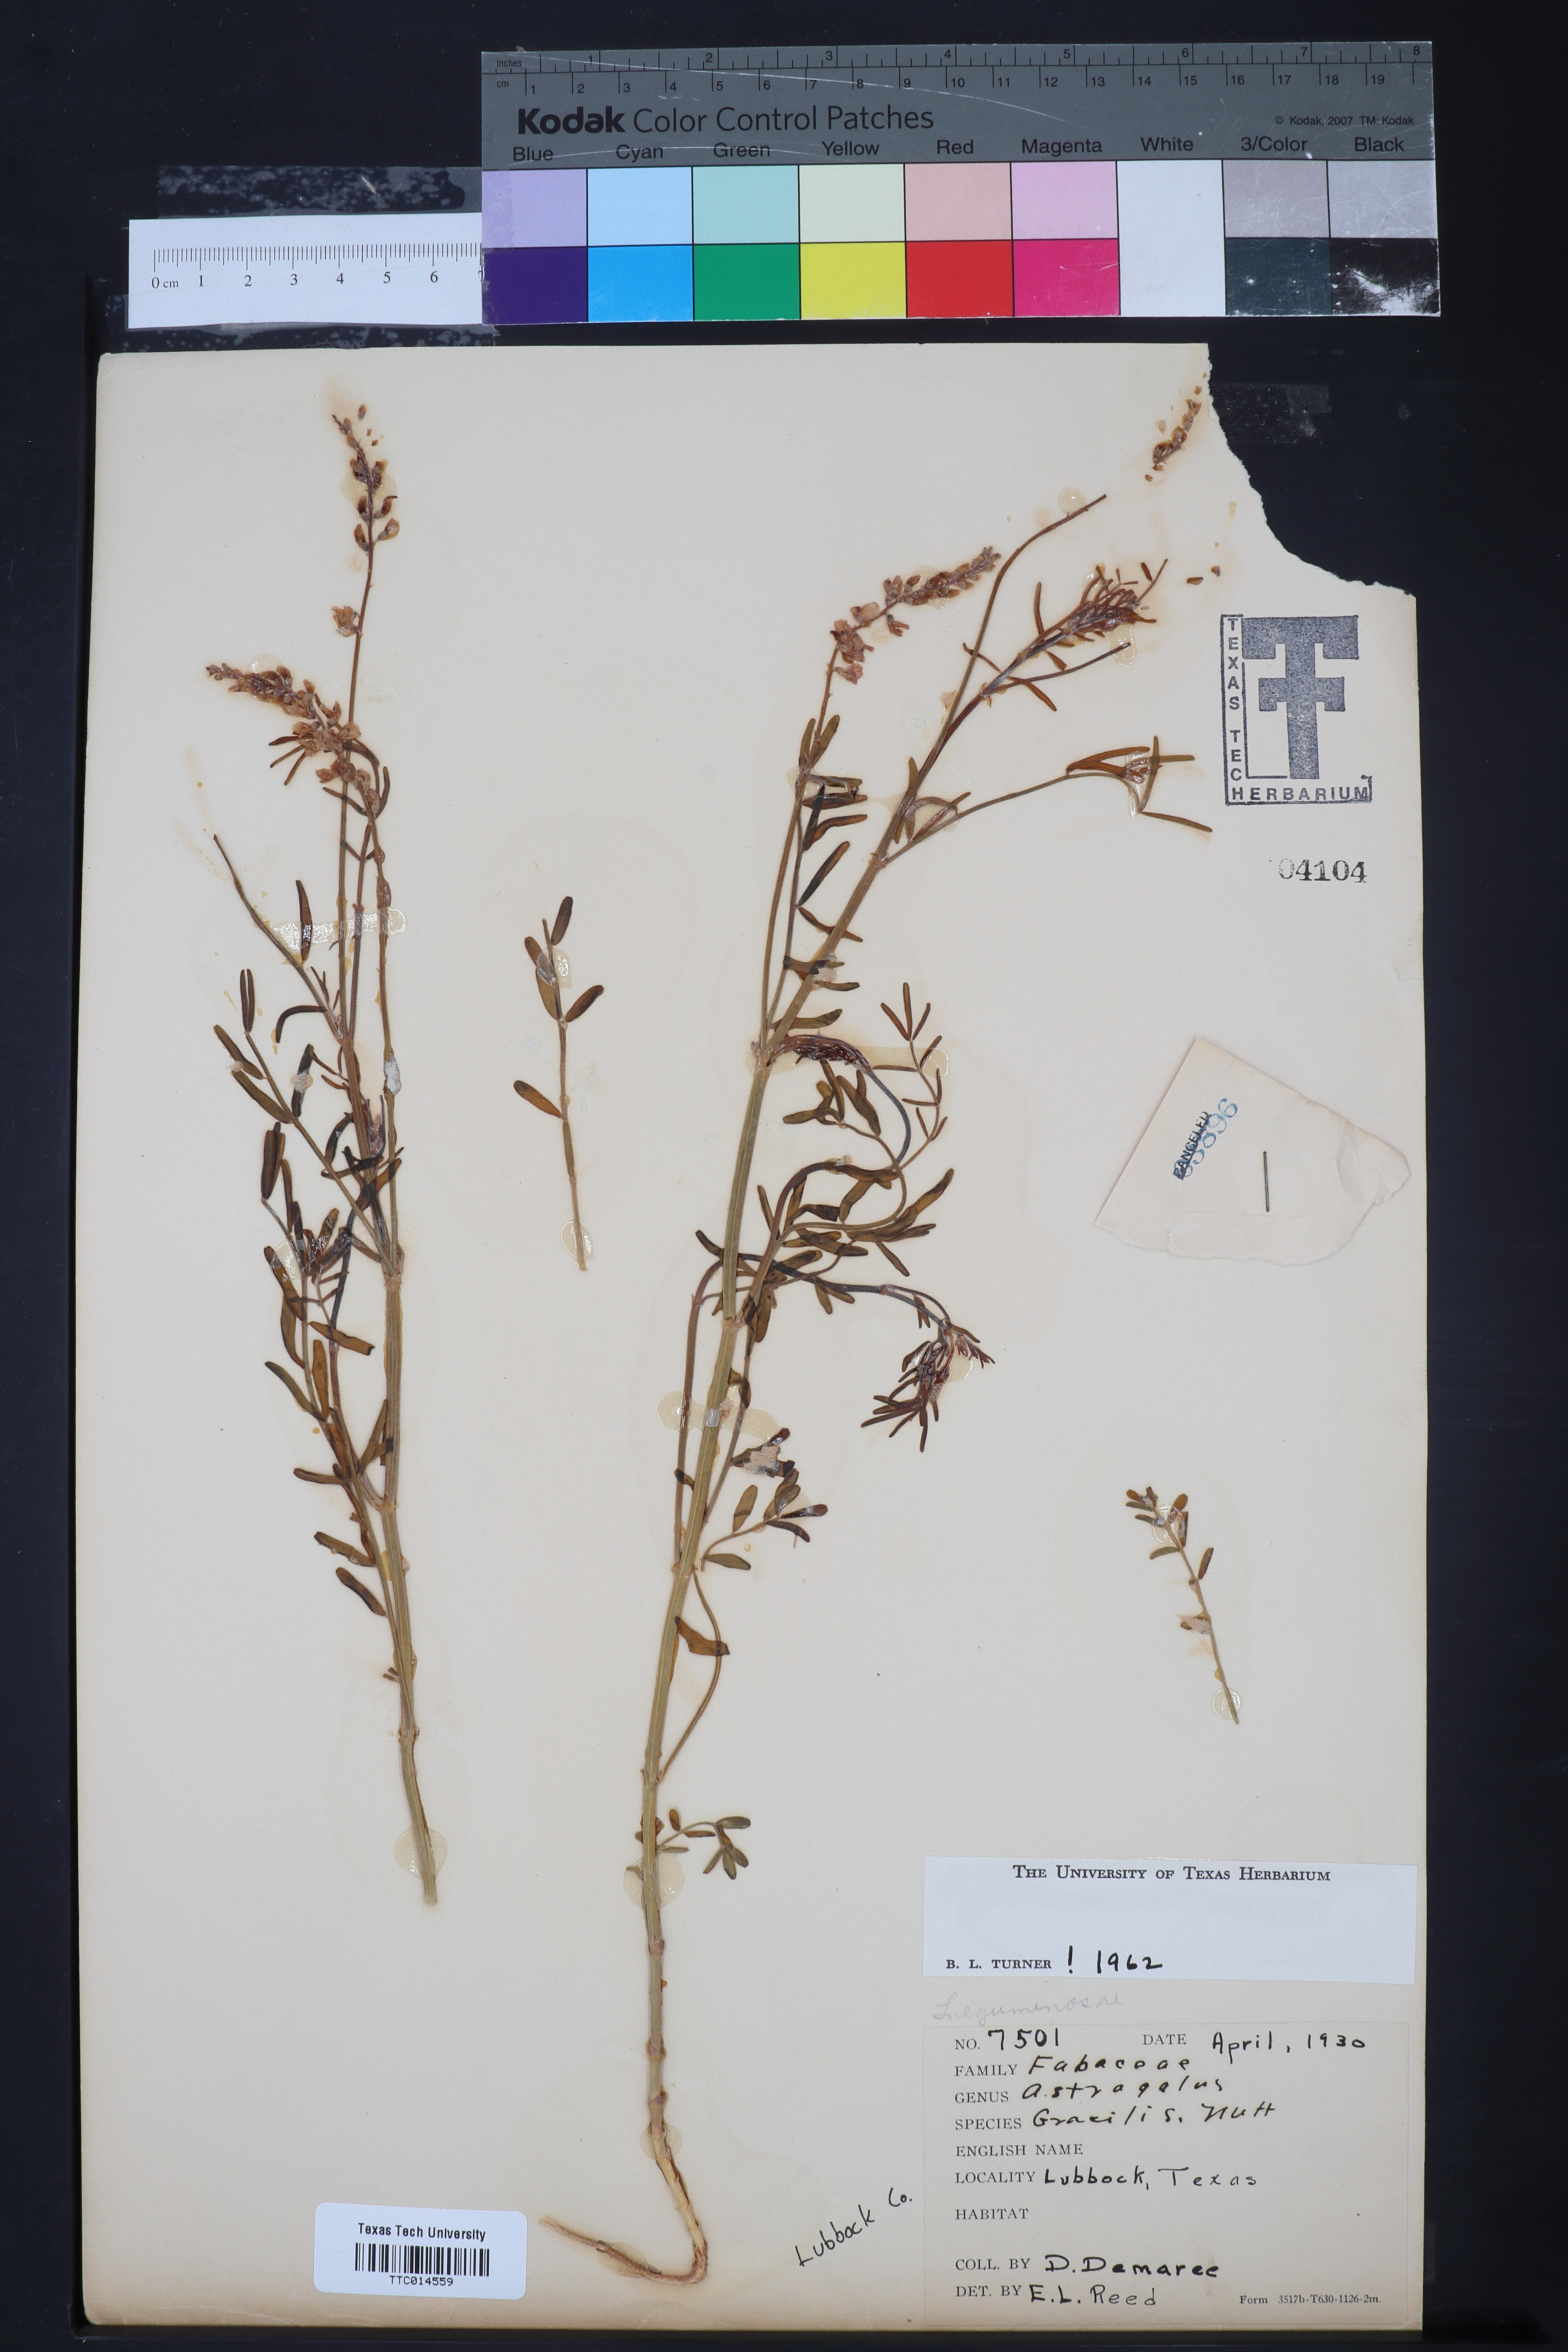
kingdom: Plantae
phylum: Tracheophyta
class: Magnoliopsida
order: Fabales
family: Fabaceae
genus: Astragalus
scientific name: Astragalus gracilis
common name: Slender milk-vetch
